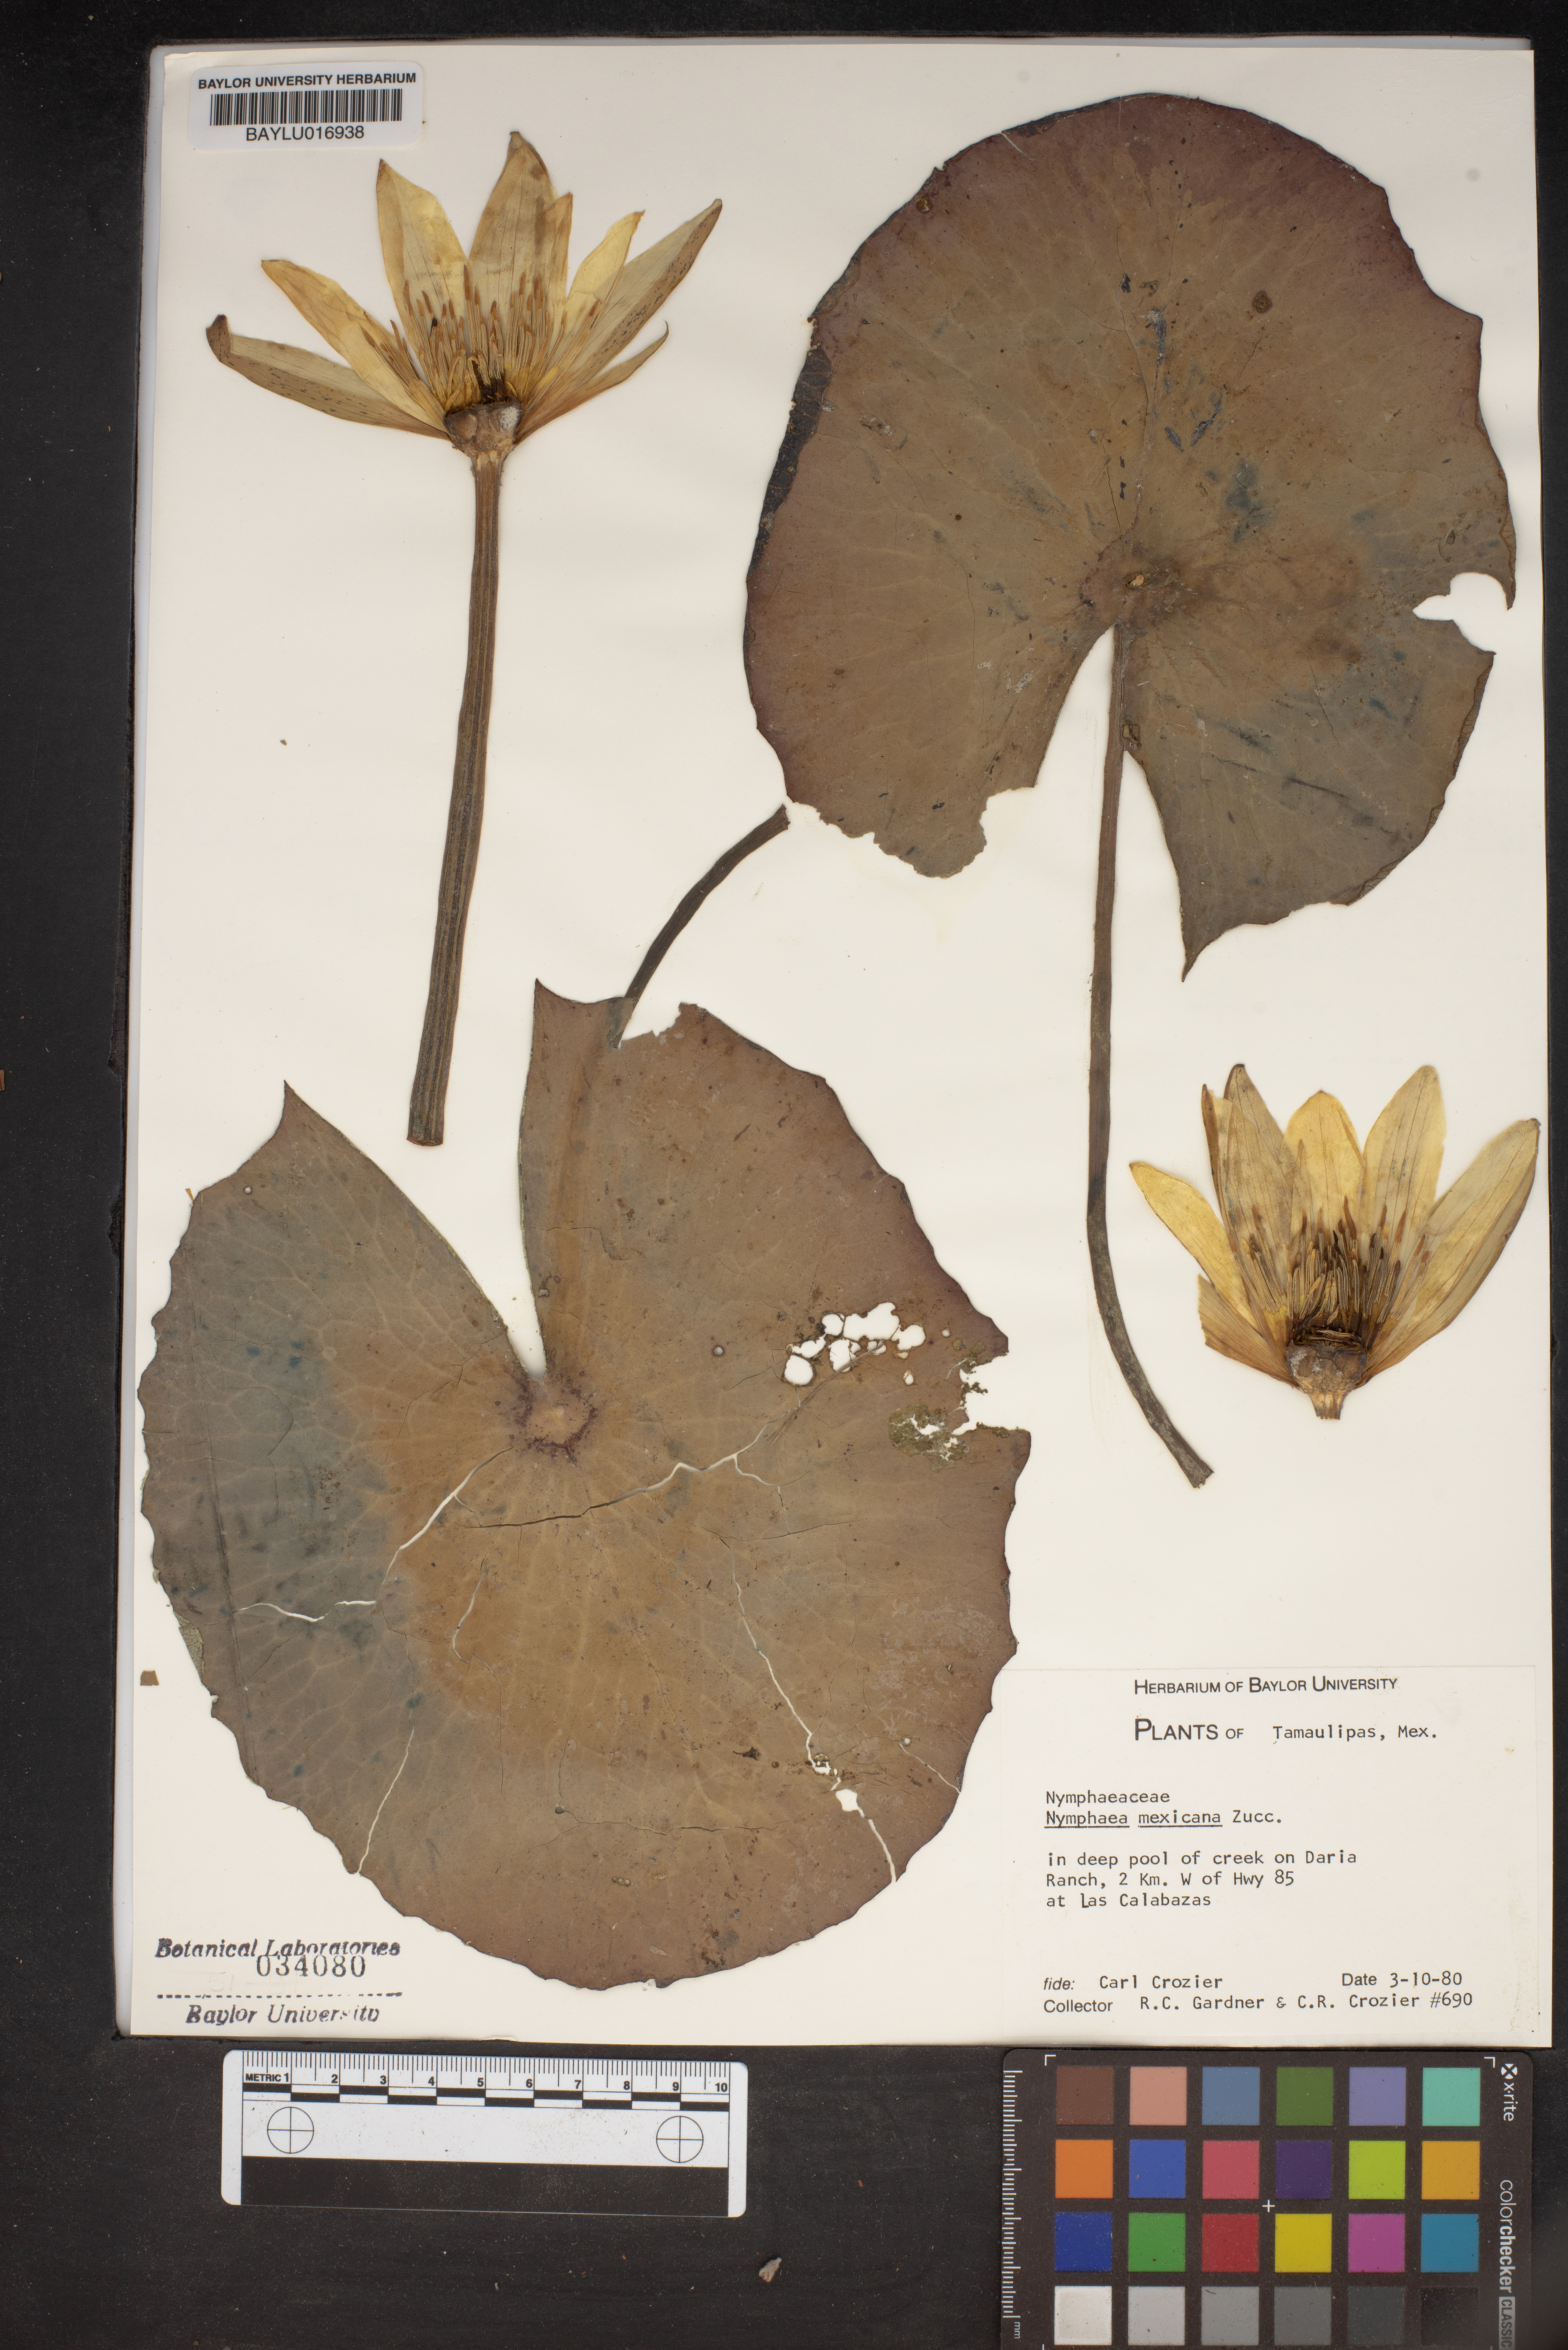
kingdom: Plantae
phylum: Tracheophyta
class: Magnoliopsida
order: Nymphaeales
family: Nymphaeaceae
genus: Nymphaea
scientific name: Nymphaea mexicana
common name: Banana water-lily
